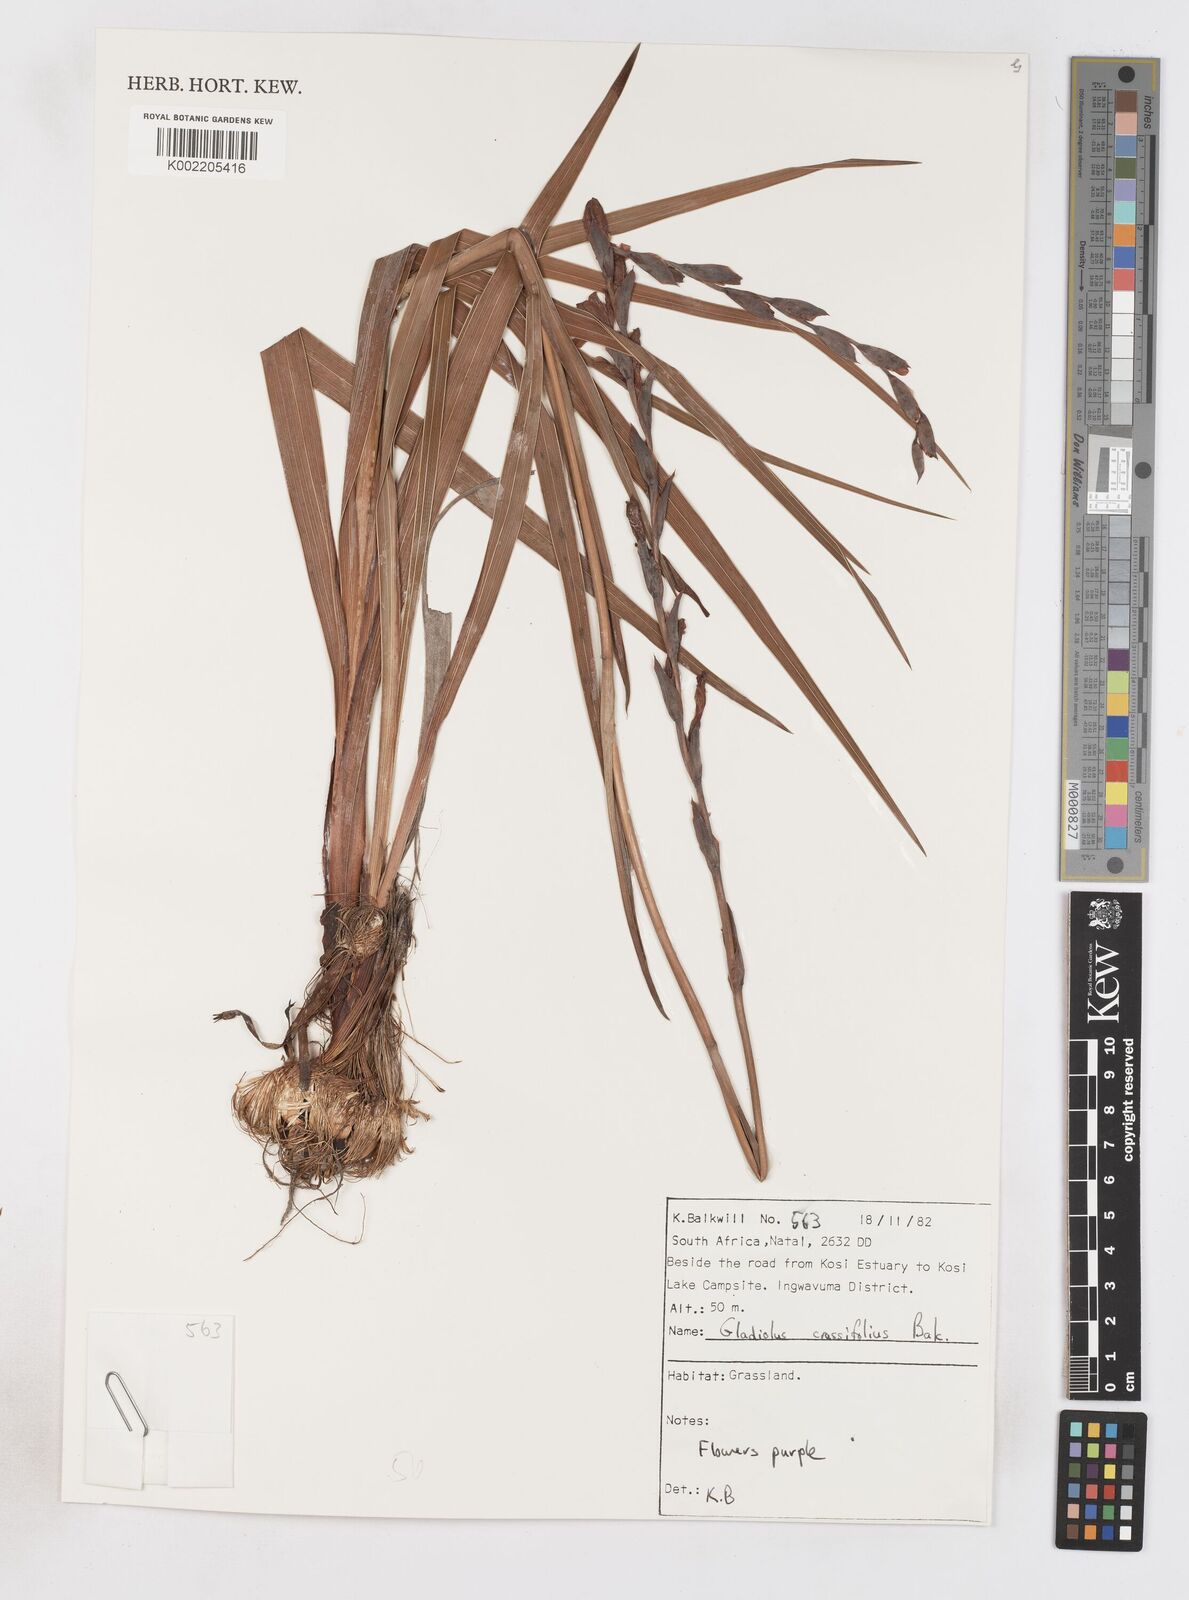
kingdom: Plantae
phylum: Tracheophyta
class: Liliopsida
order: Asparagales
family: Iridaceae
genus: Gladiolus
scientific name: Gladiolus densiflorus
